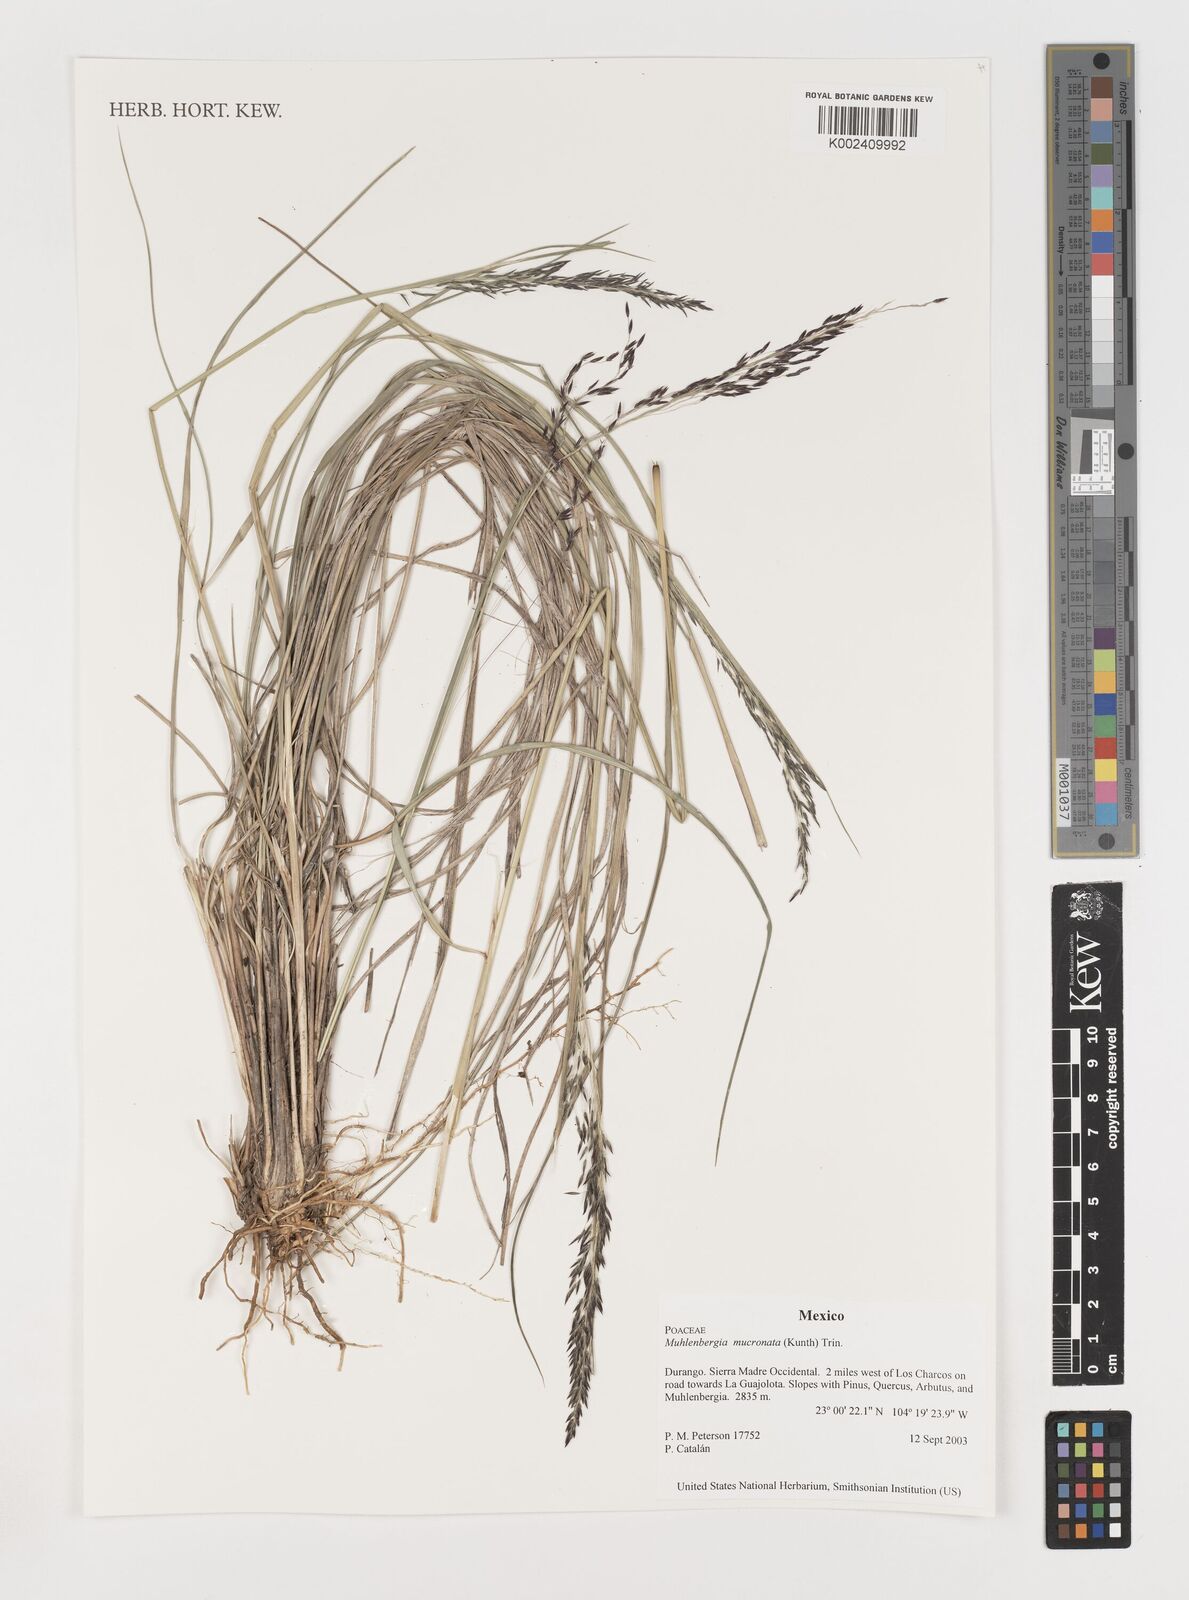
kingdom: Plantae
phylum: Tracheophyta
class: Liliopsida
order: Poales
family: Poaceae
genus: Muhlenbergia
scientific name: Muhlenbergia mucronata
